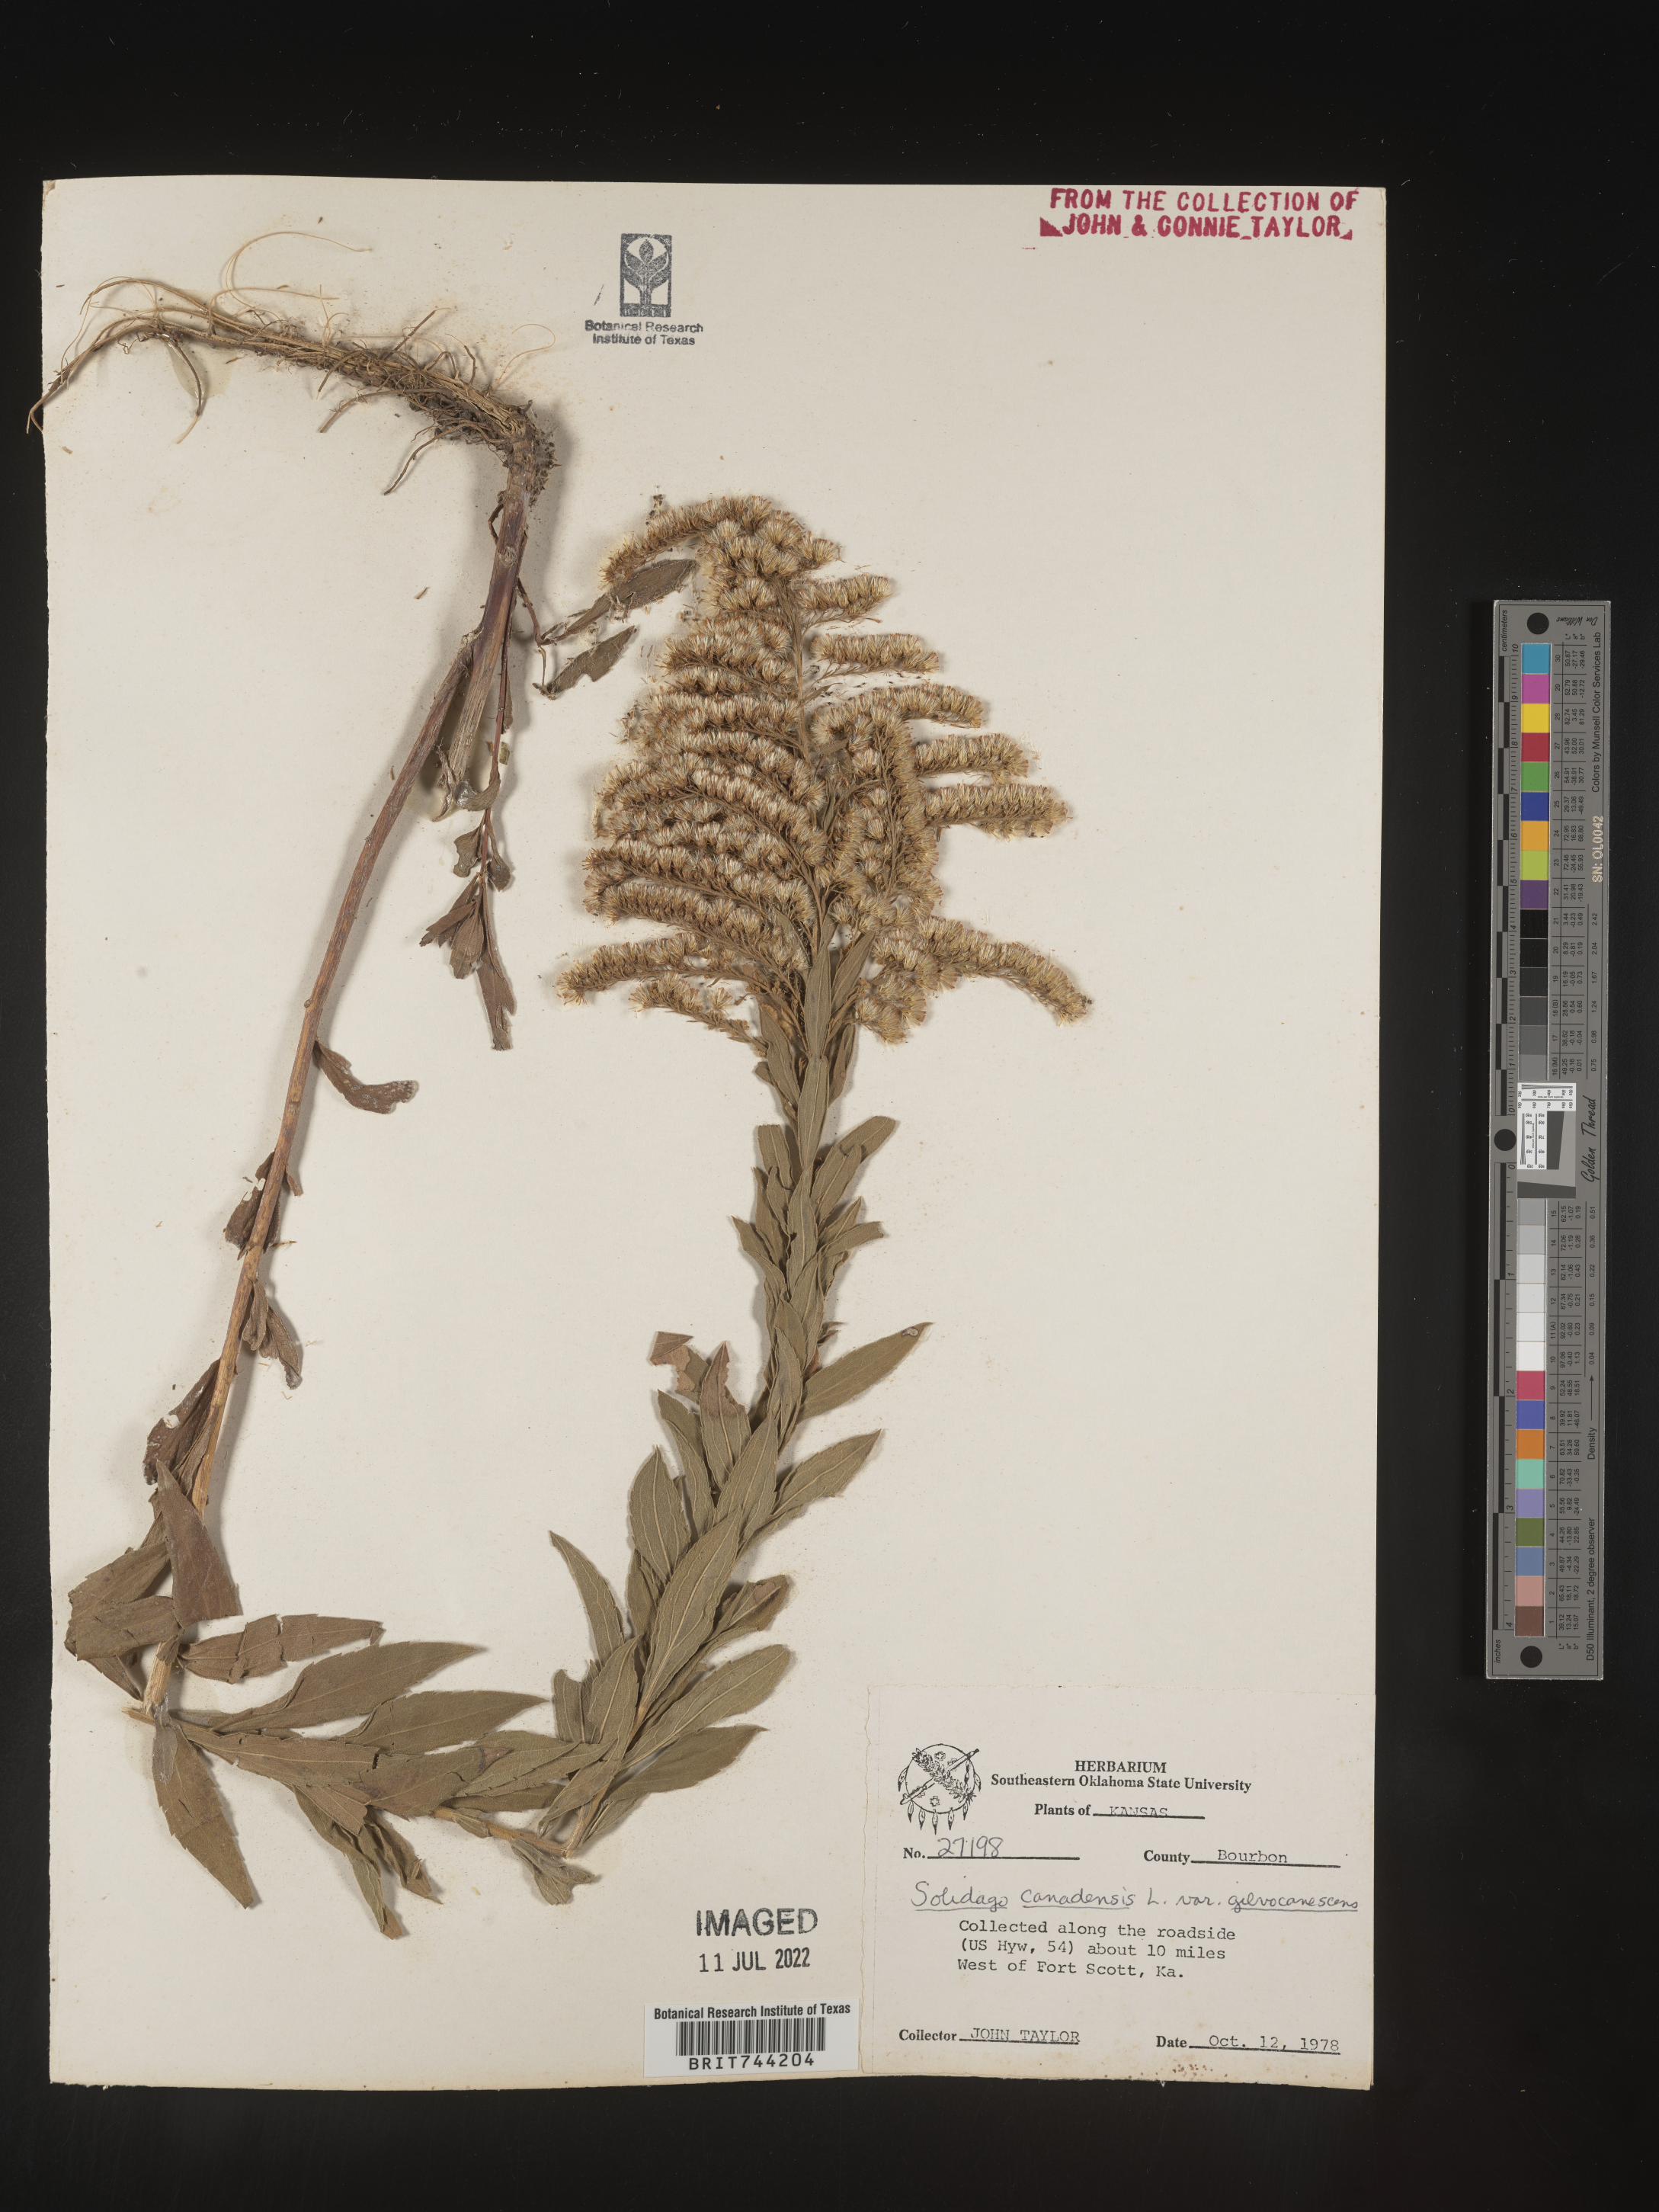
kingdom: Plantae
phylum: Tracheophyta
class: Magnoliopsida
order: Asterales
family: Asteraceae
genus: Solidago
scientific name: Solidago altissima
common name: Late goldenrod
